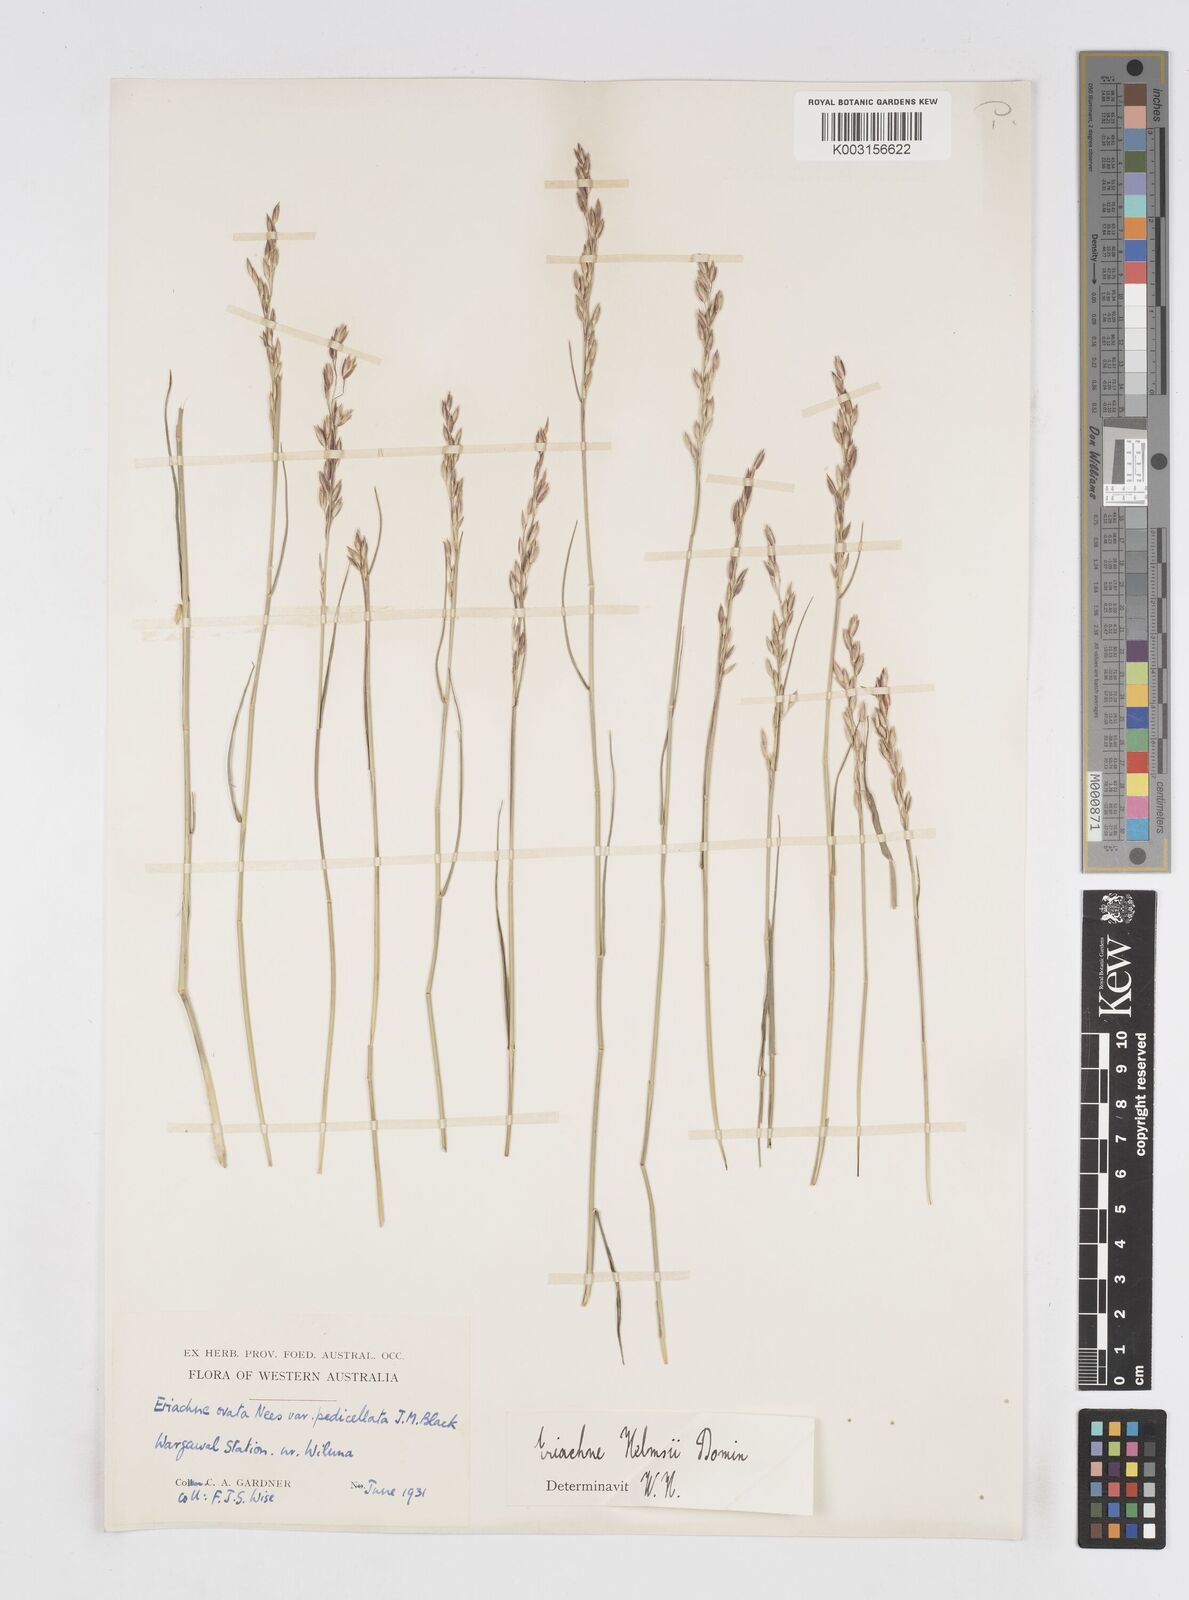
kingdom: Plantae
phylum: Tracheophyta
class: Liliopsida
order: Poales
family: Poaceae
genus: Eriachne
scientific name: Eriachne helmsii
